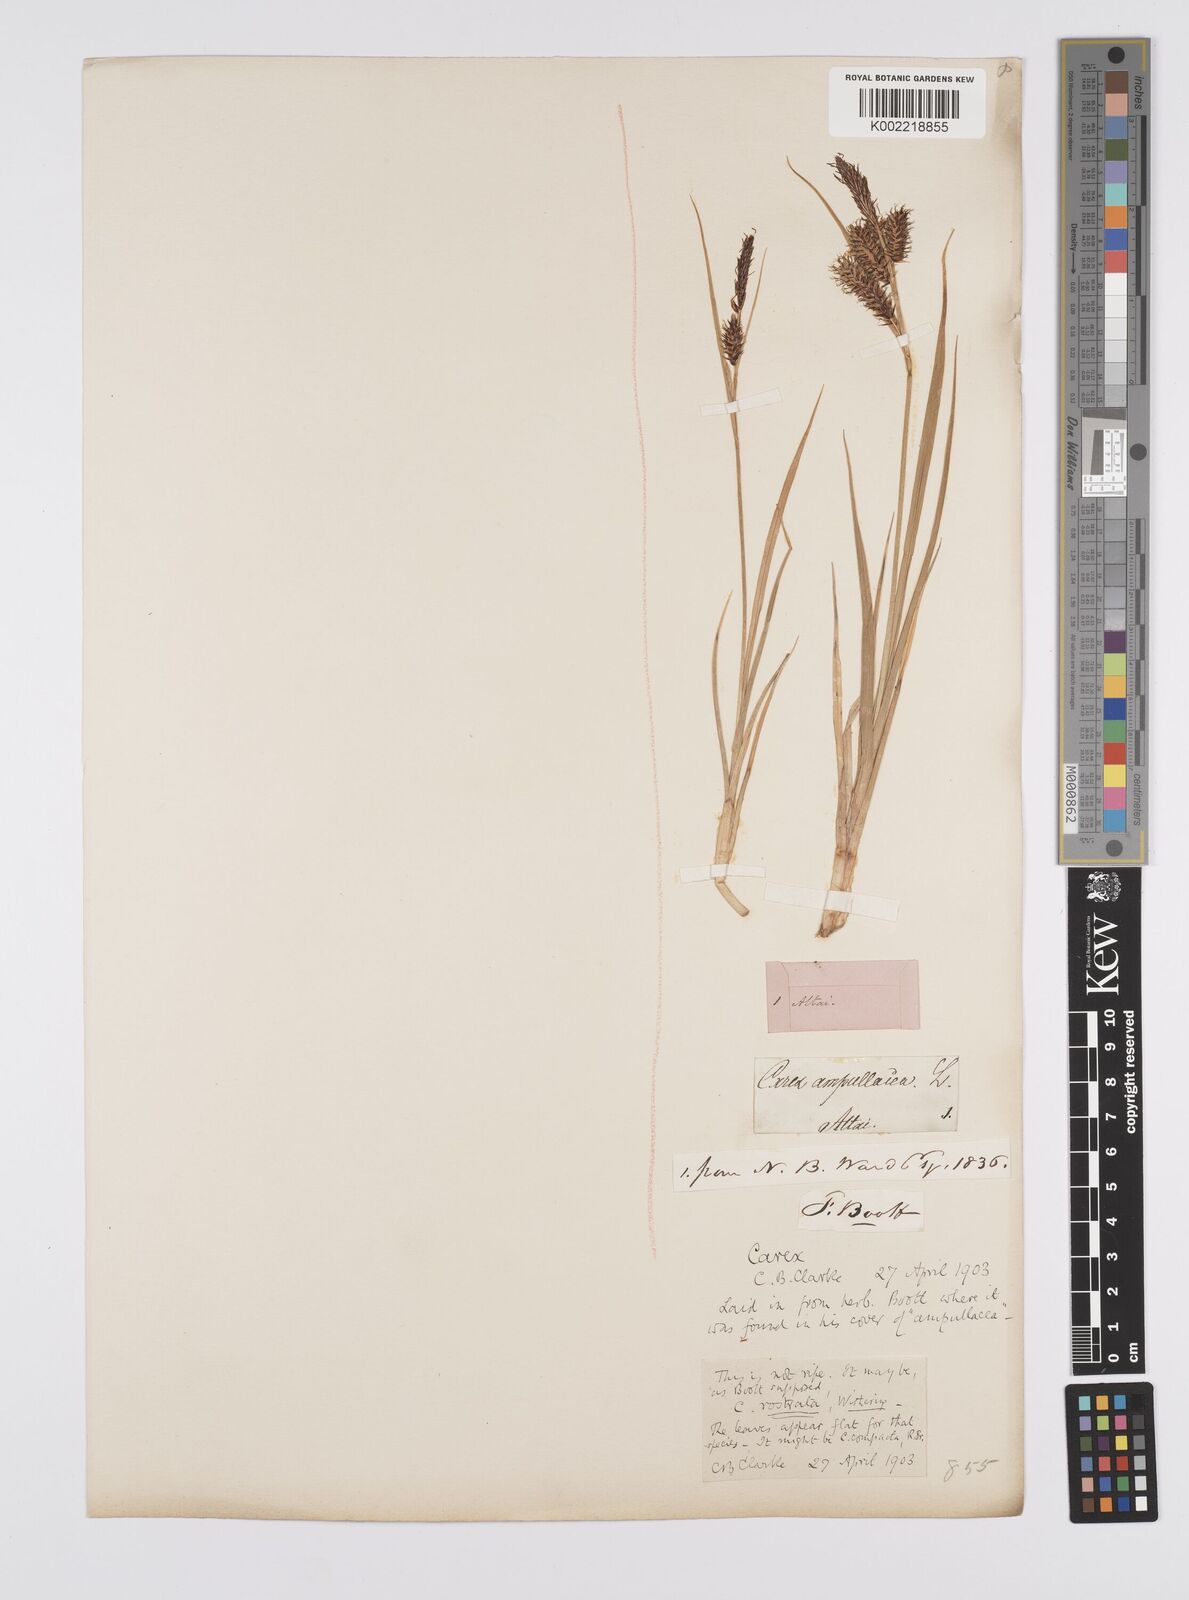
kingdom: Plantae
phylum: Tracheophyta
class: Liliopsida
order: Poales
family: Cyperaceae
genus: Carex
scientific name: Carex michauxiana
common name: Michaux's sedge
